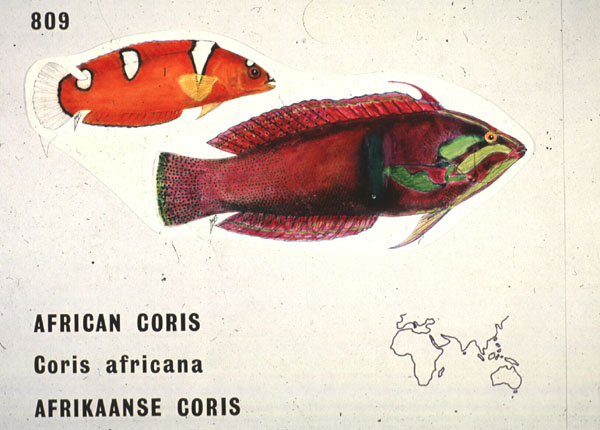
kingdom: Animalia
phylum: Chordata
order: Perciformes
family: Labridae
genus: Coris
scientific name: Coris cuvieri
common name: African coris
